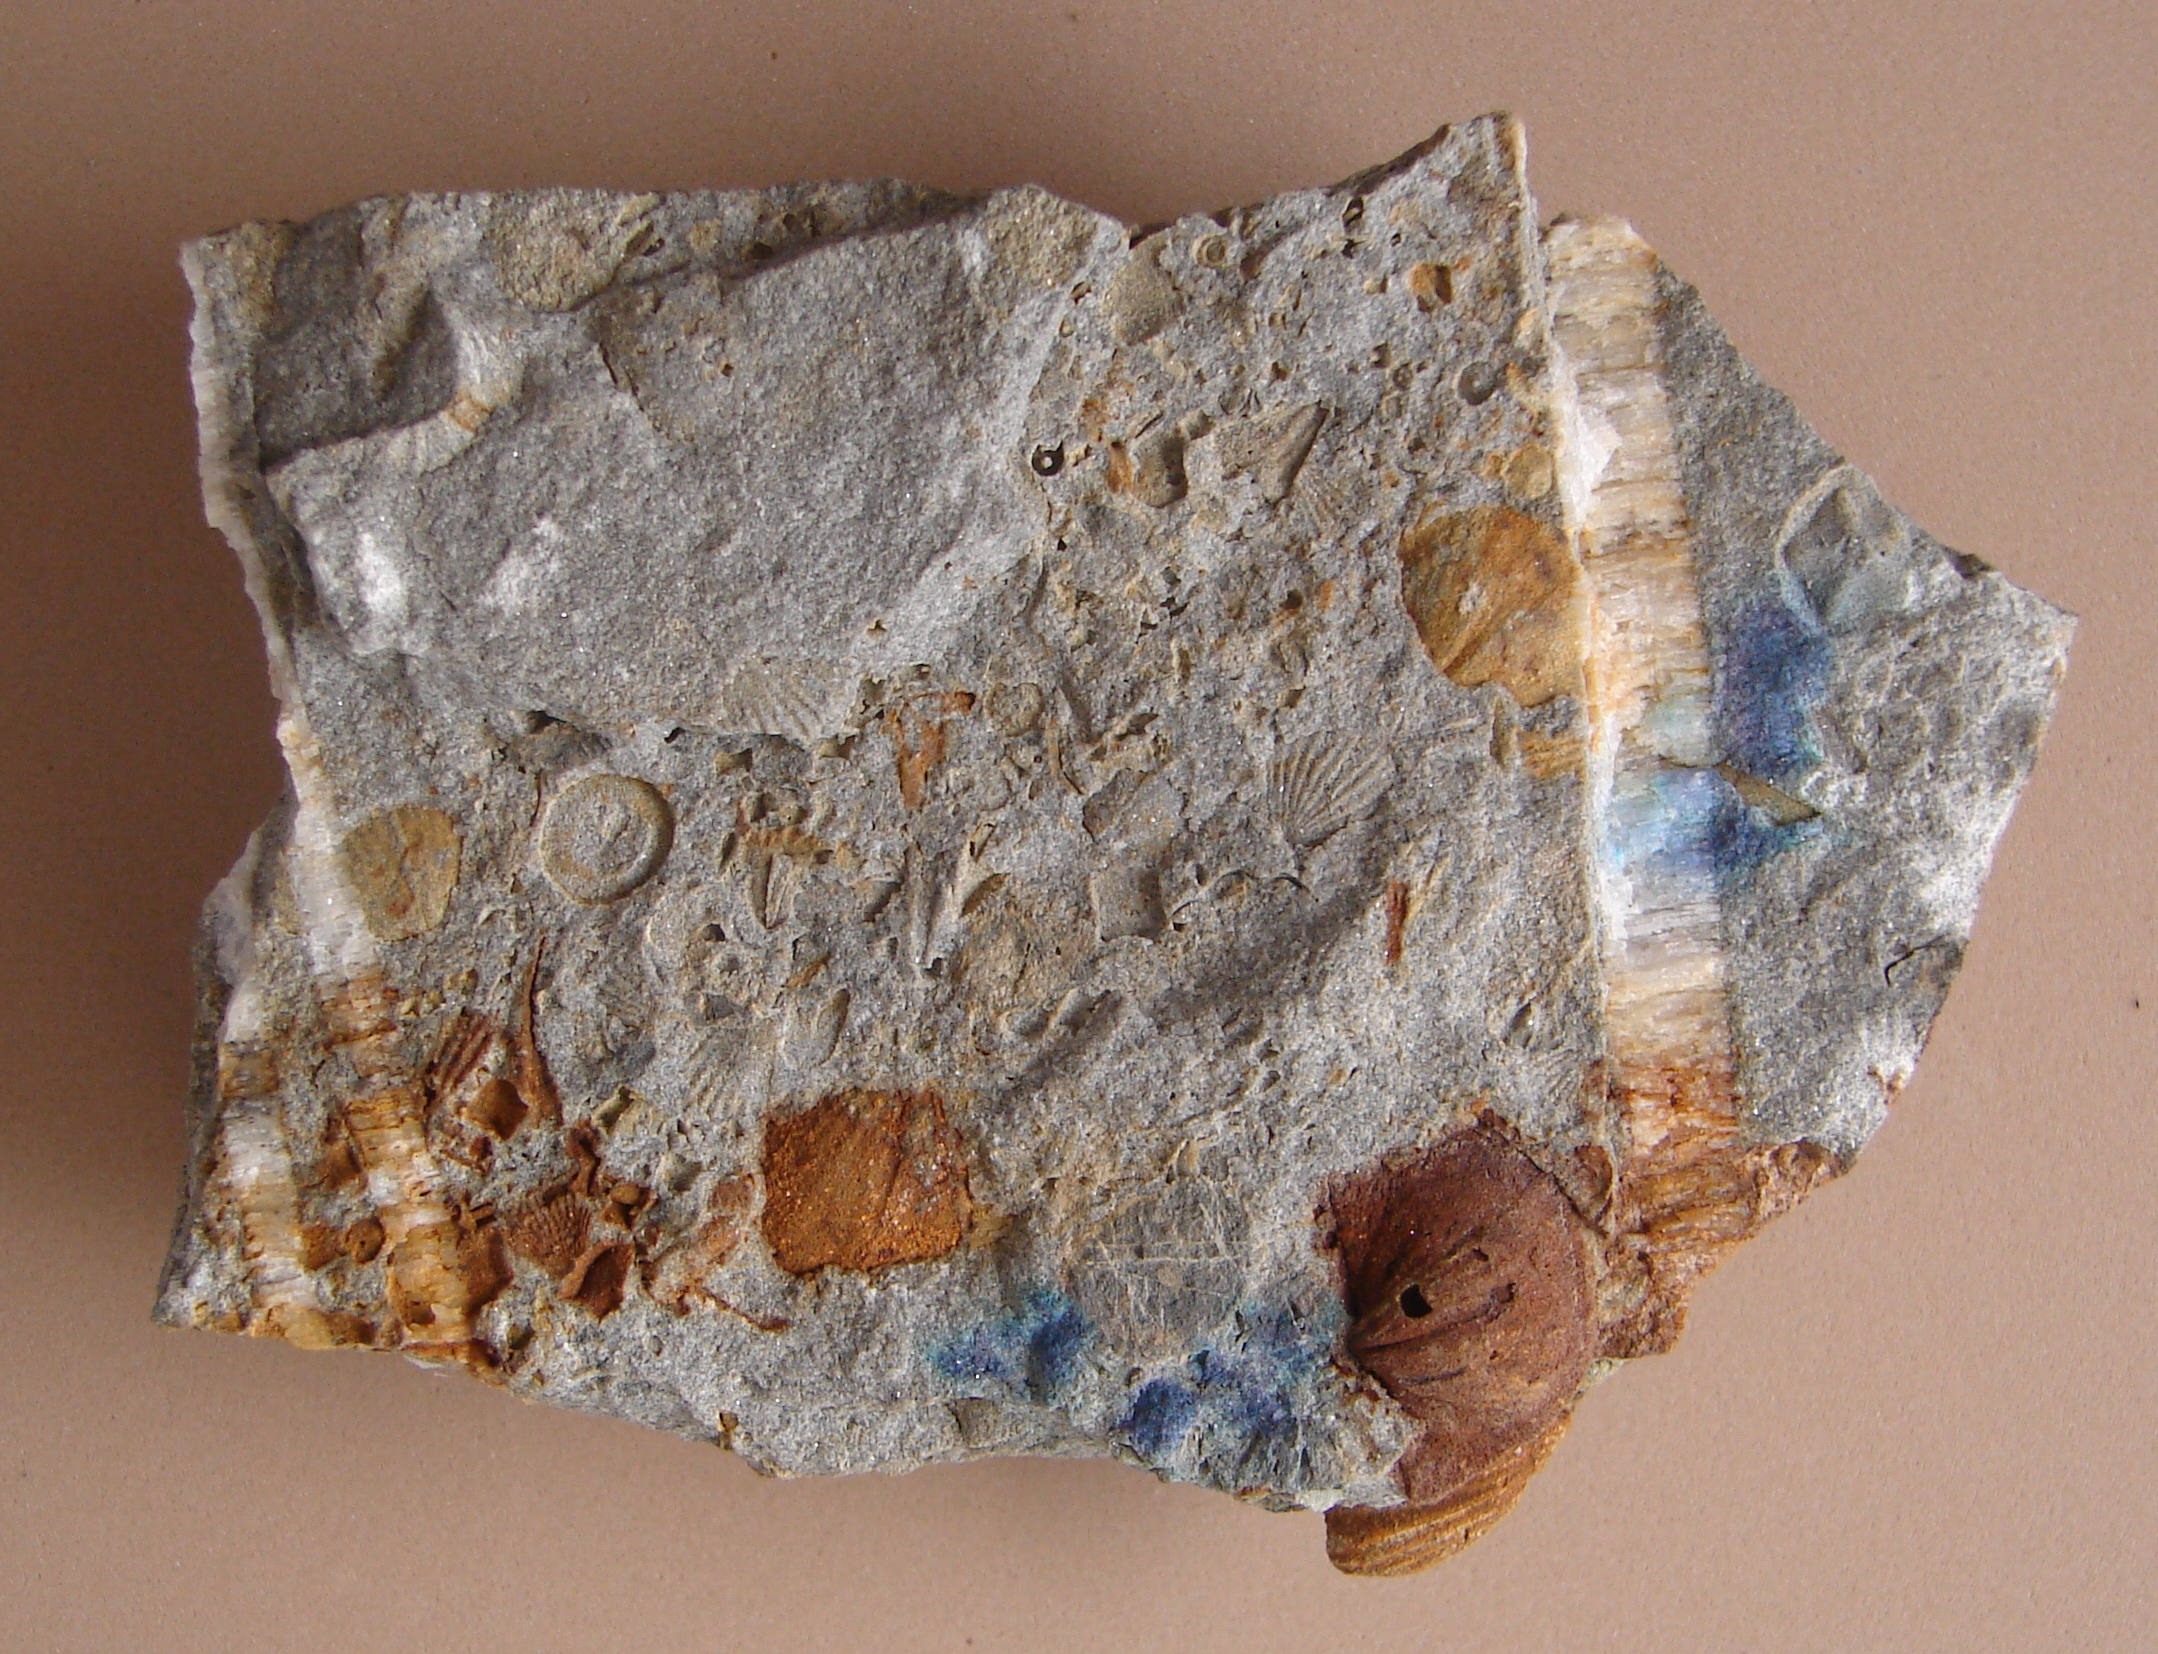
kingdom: Animalia
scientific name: Animalia
